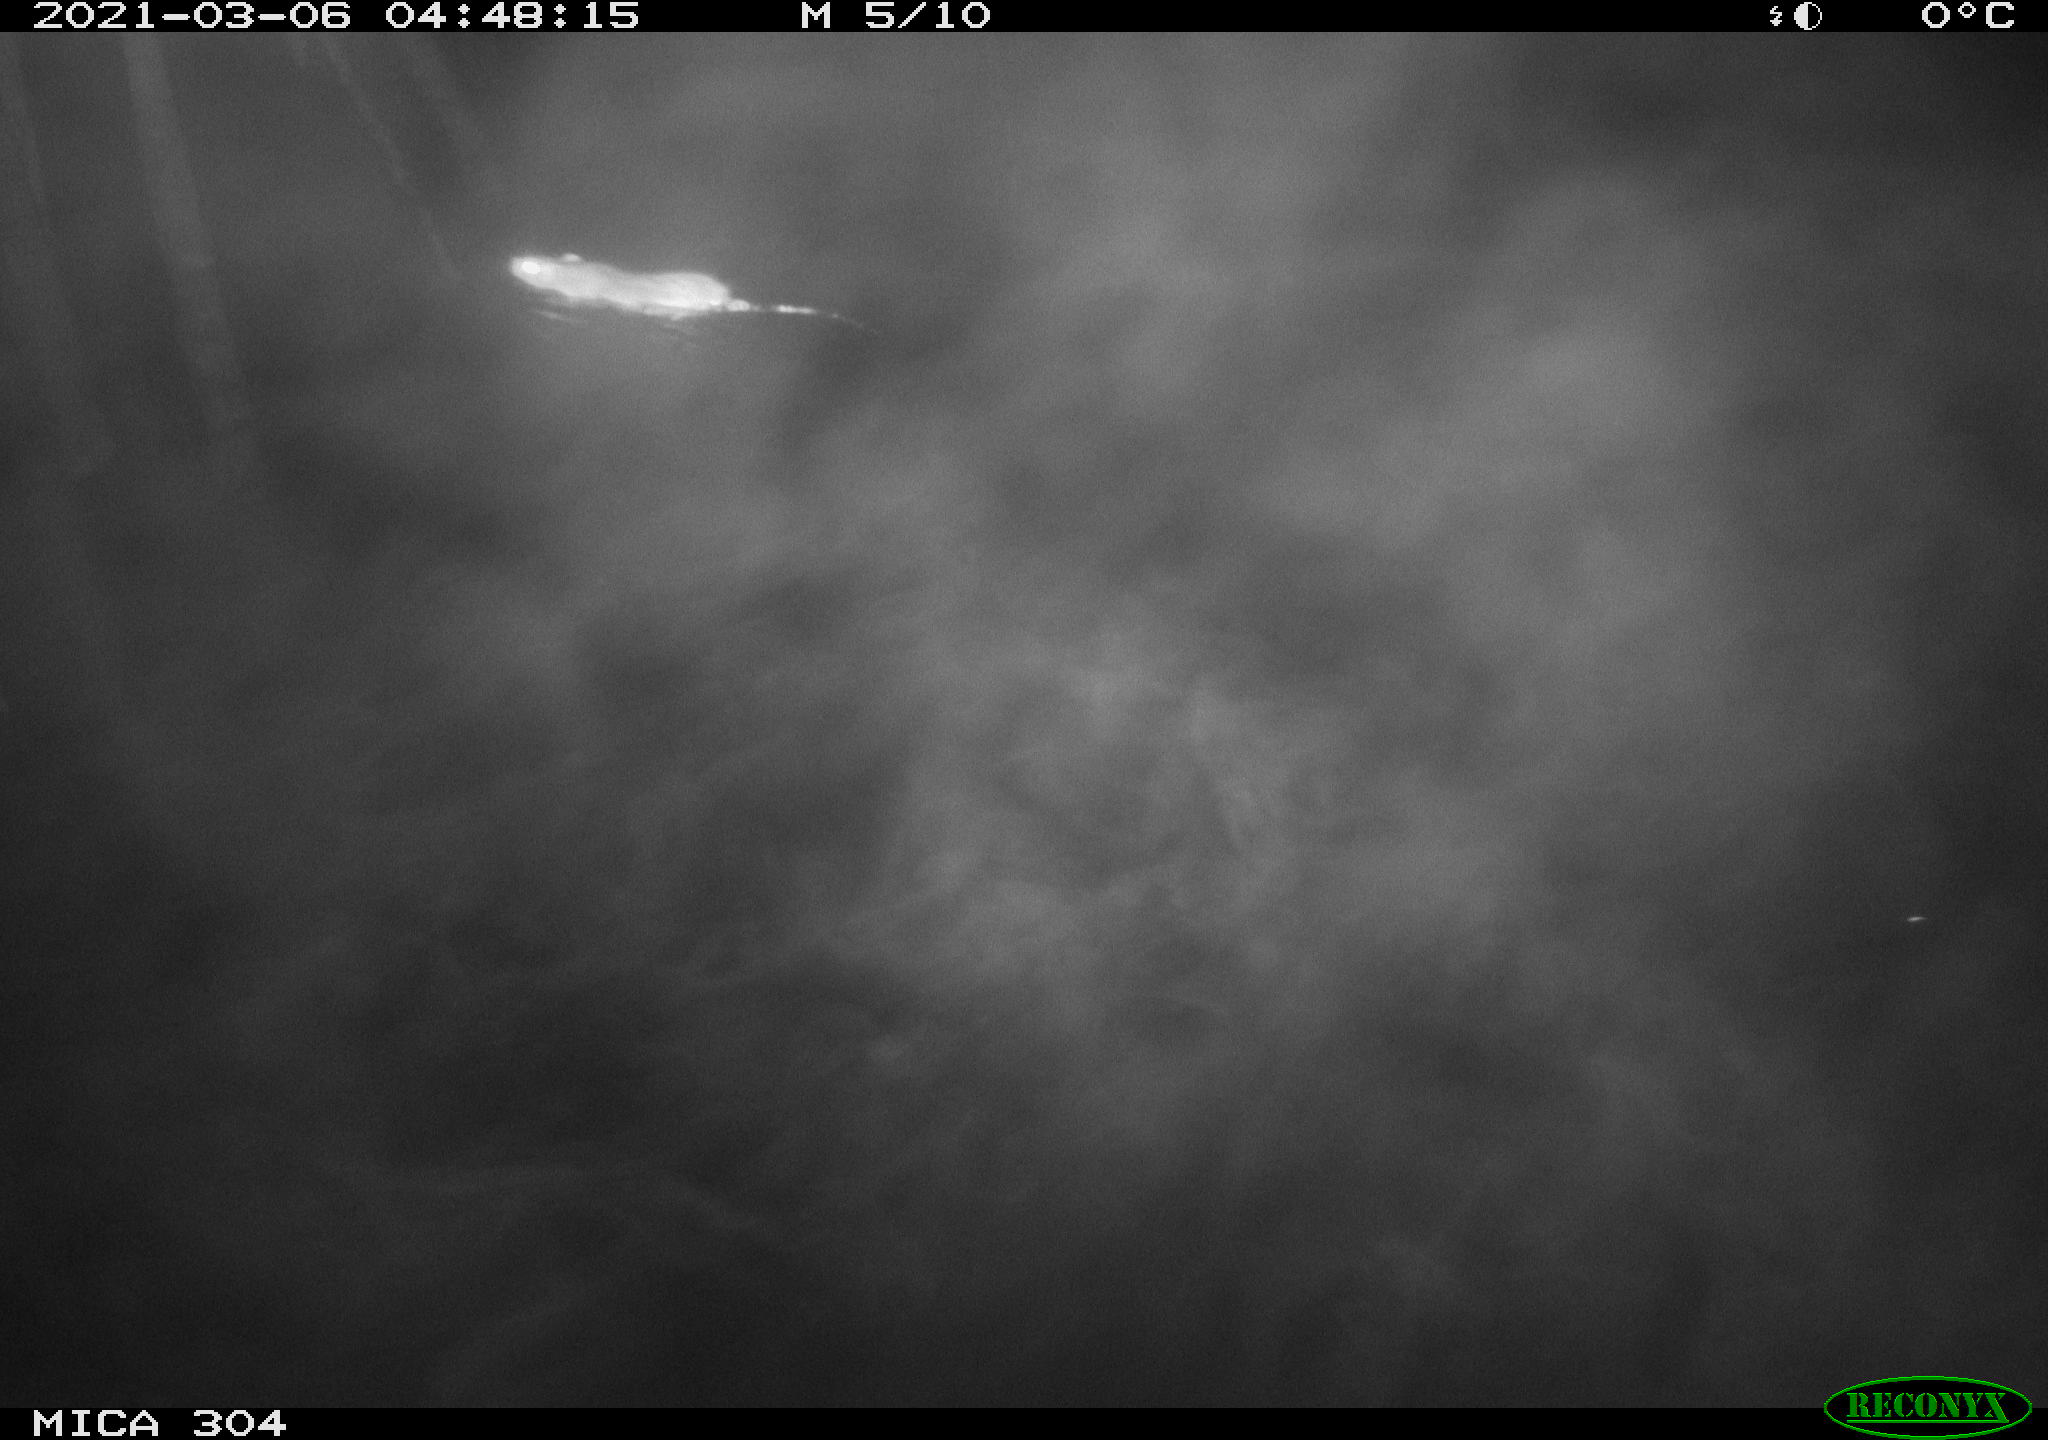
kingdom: Animalia
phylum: Chordata
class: Mammalia
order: Rodentia
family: Muridae
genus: Rattus
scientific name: Rattus norvegicus
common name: Brown rat
